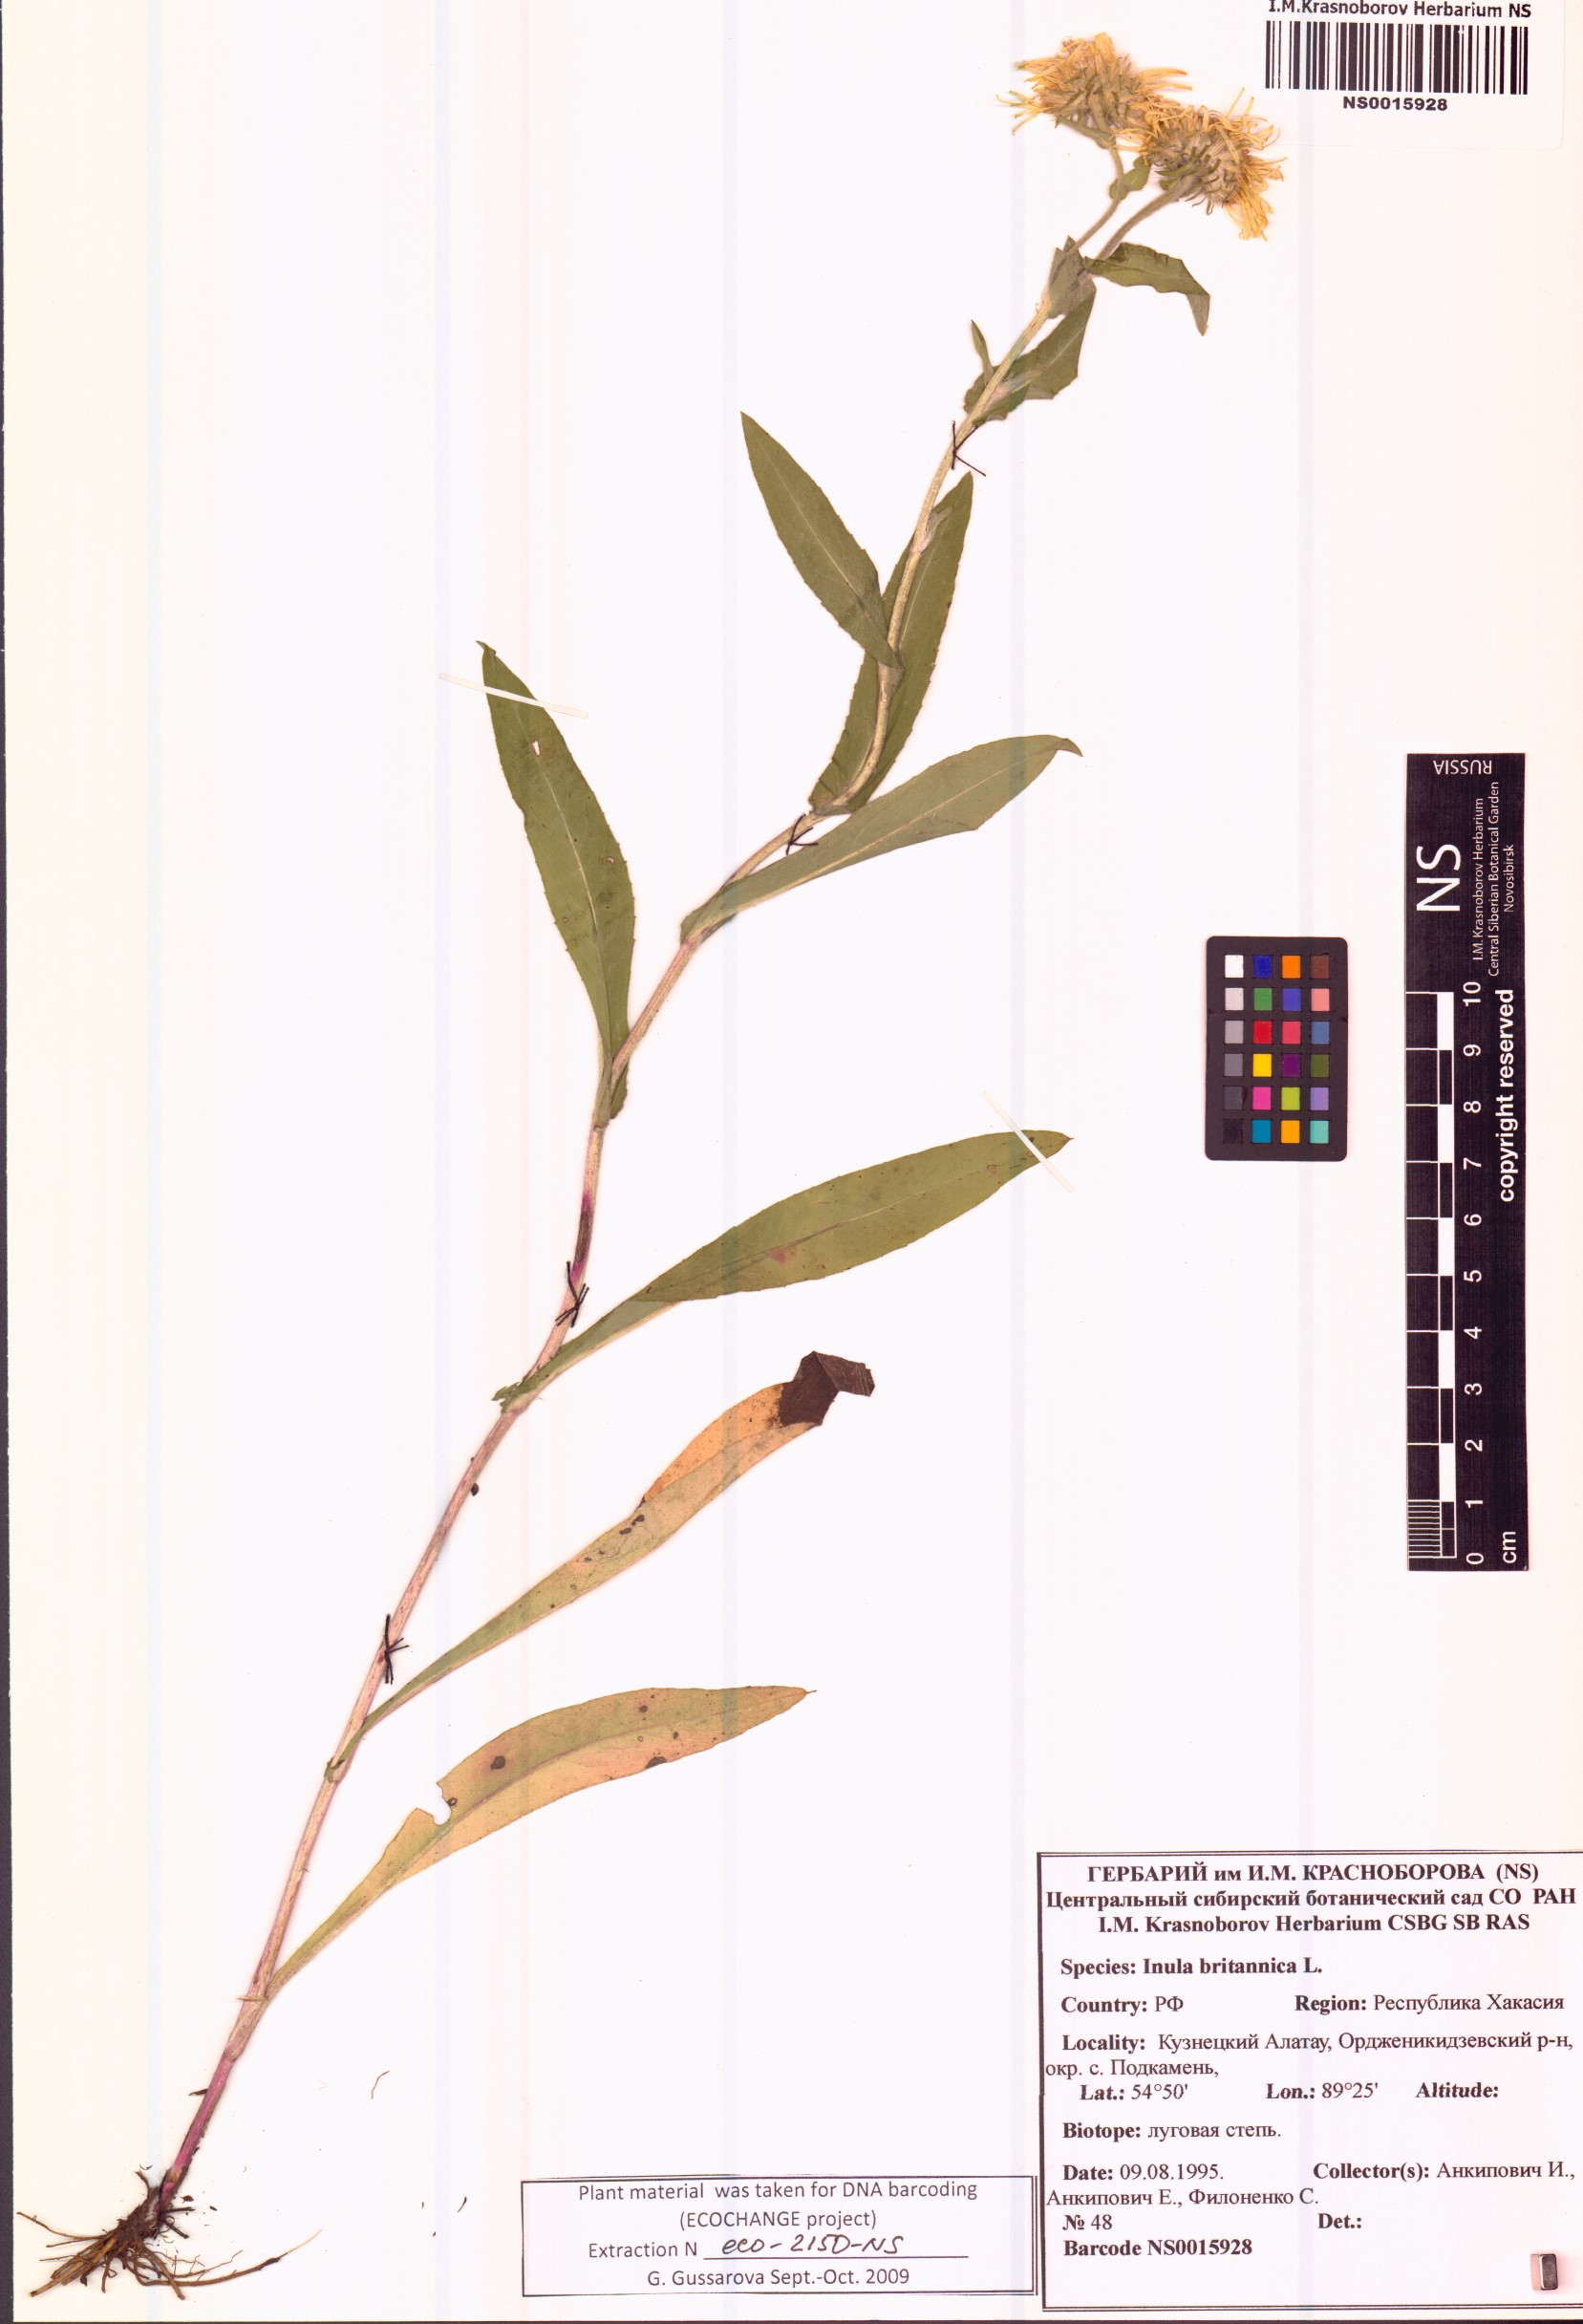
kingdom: Plantae
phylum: Tracheophyta
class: Magnoliopsida
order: Asterales
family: Asteraceae
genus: Pentanema
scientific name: Pentanema britannicum
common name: British elecampane
